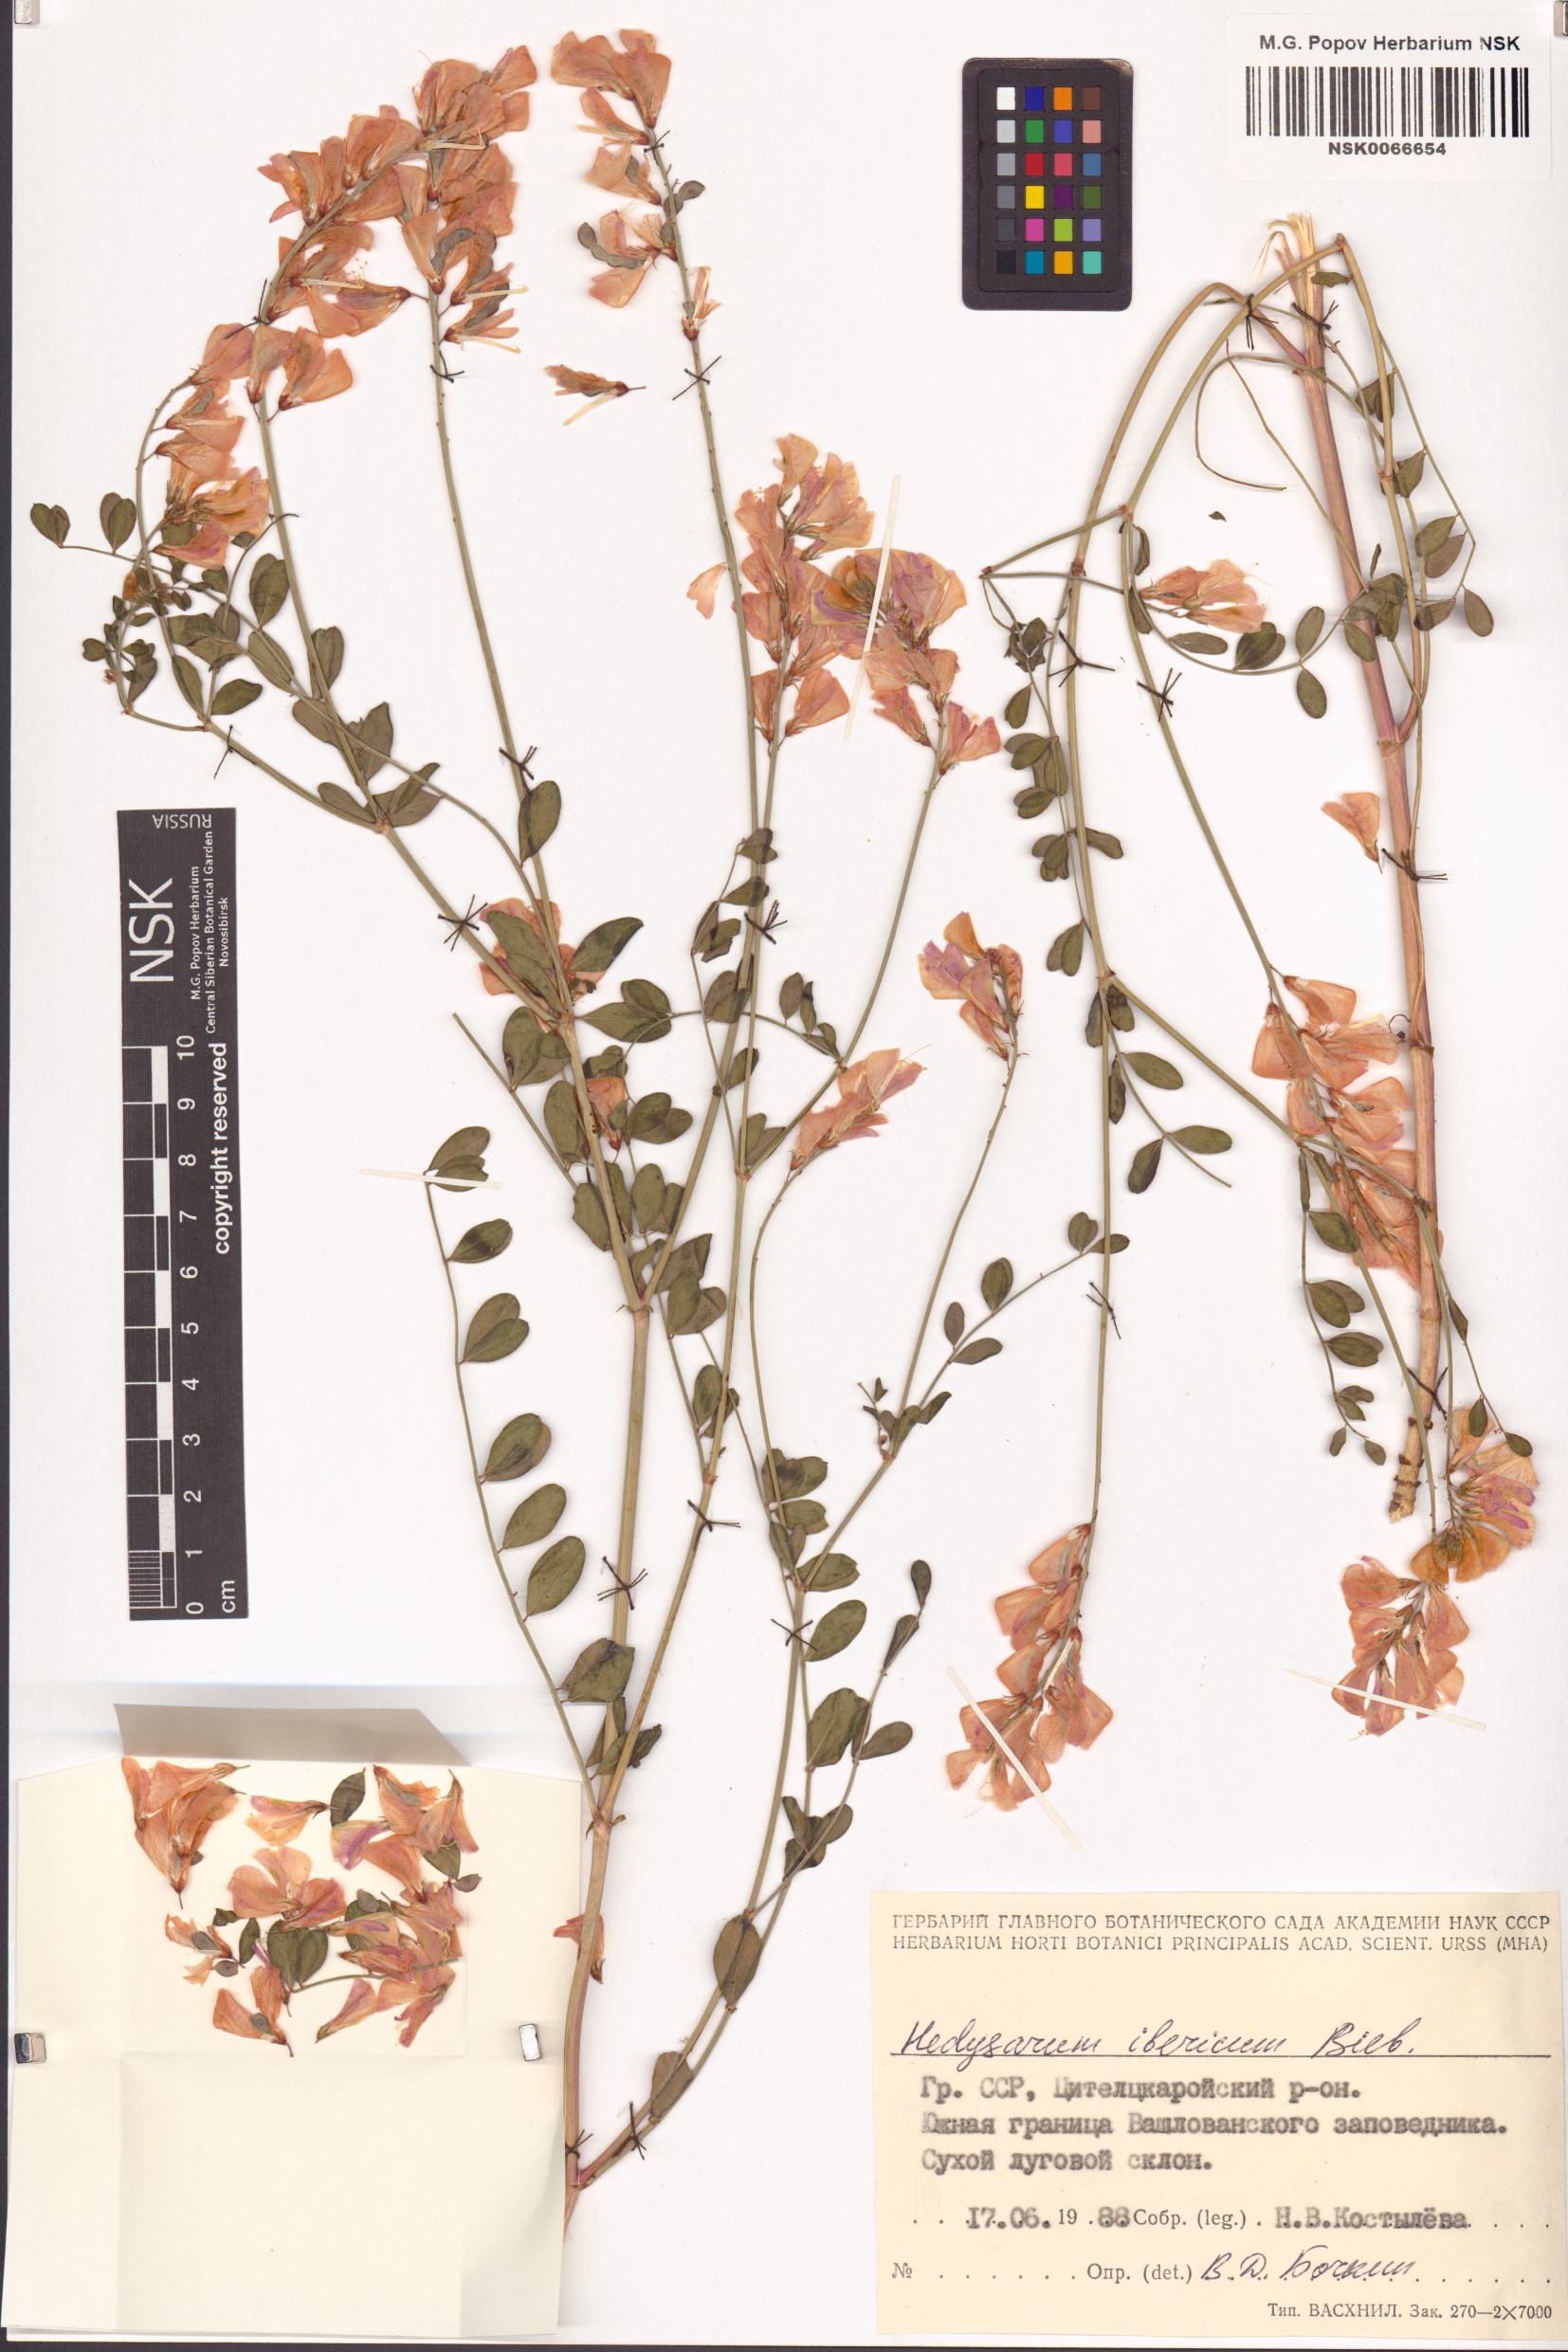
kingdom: Plantae
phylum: Tracheophyta
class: Magnoliopsida
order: Fabales
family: Fabaceae
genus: Hedysarum
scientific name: Hedysarum ibericum
